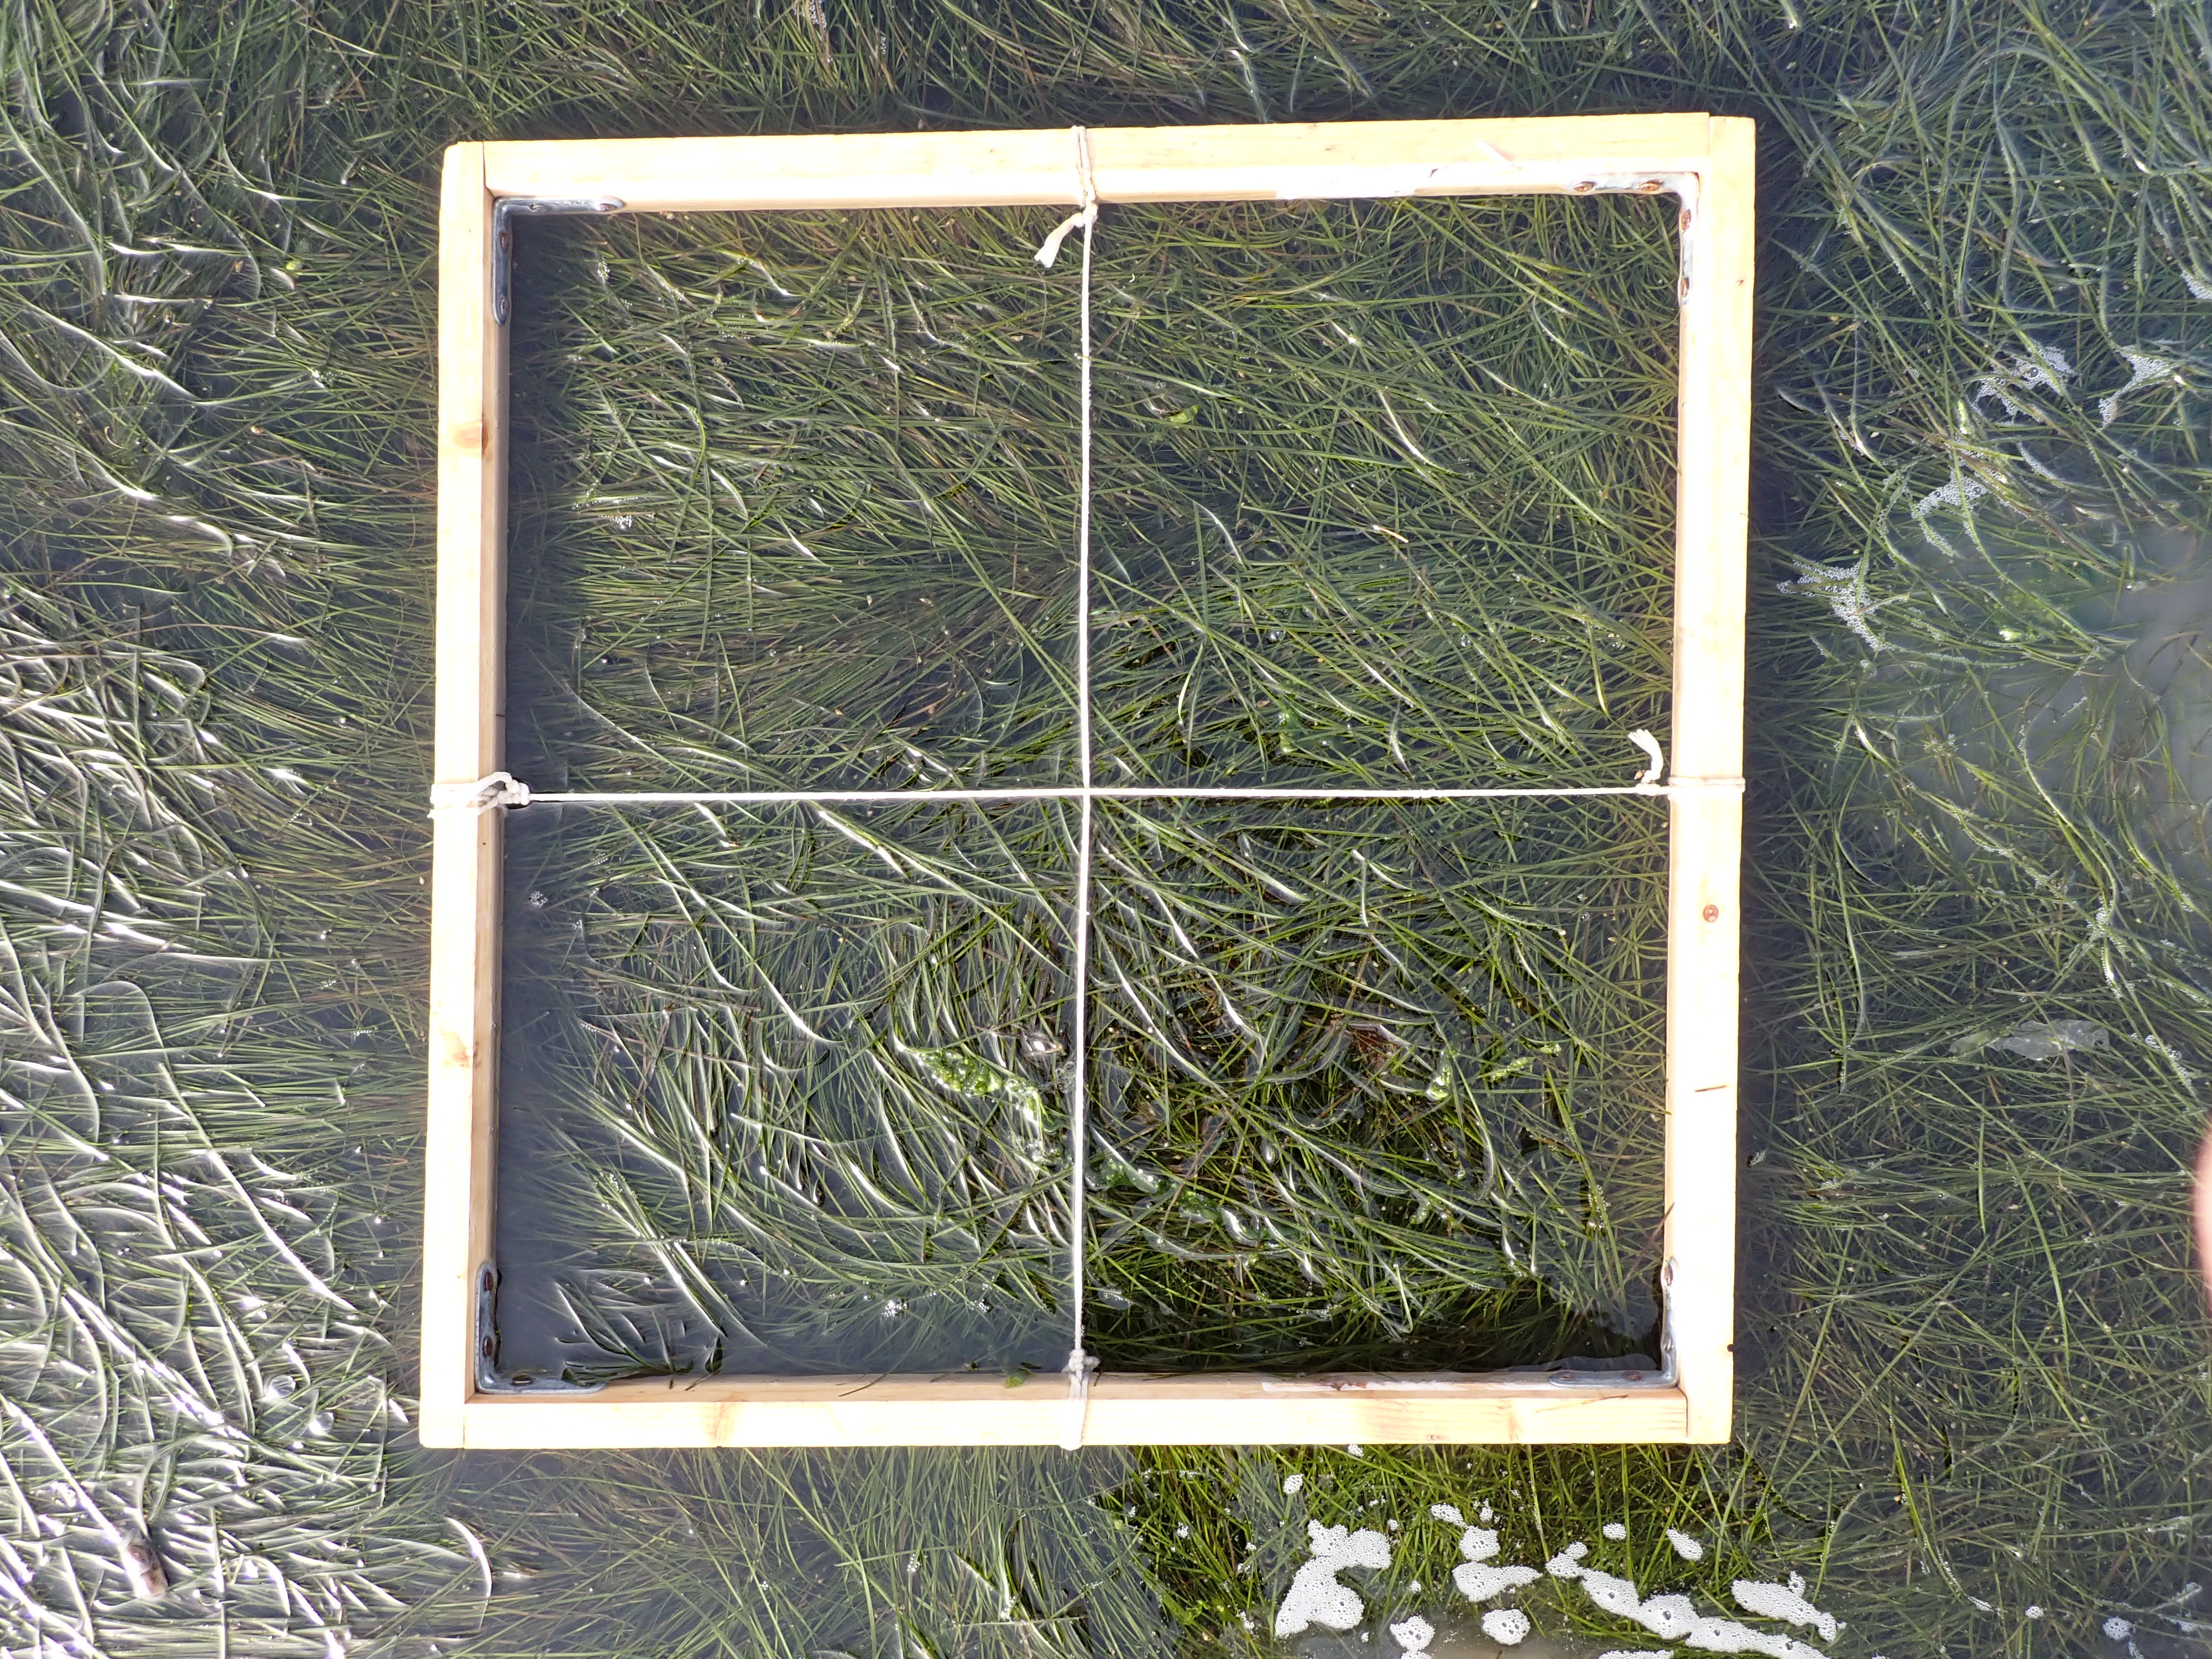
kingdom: Plantae
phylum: Tracheophyta
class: Liliopsida
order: Alismatales
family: Zosteraceae
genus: Zostera
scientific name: Zostera noltii
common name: Dwarf eelgrass
